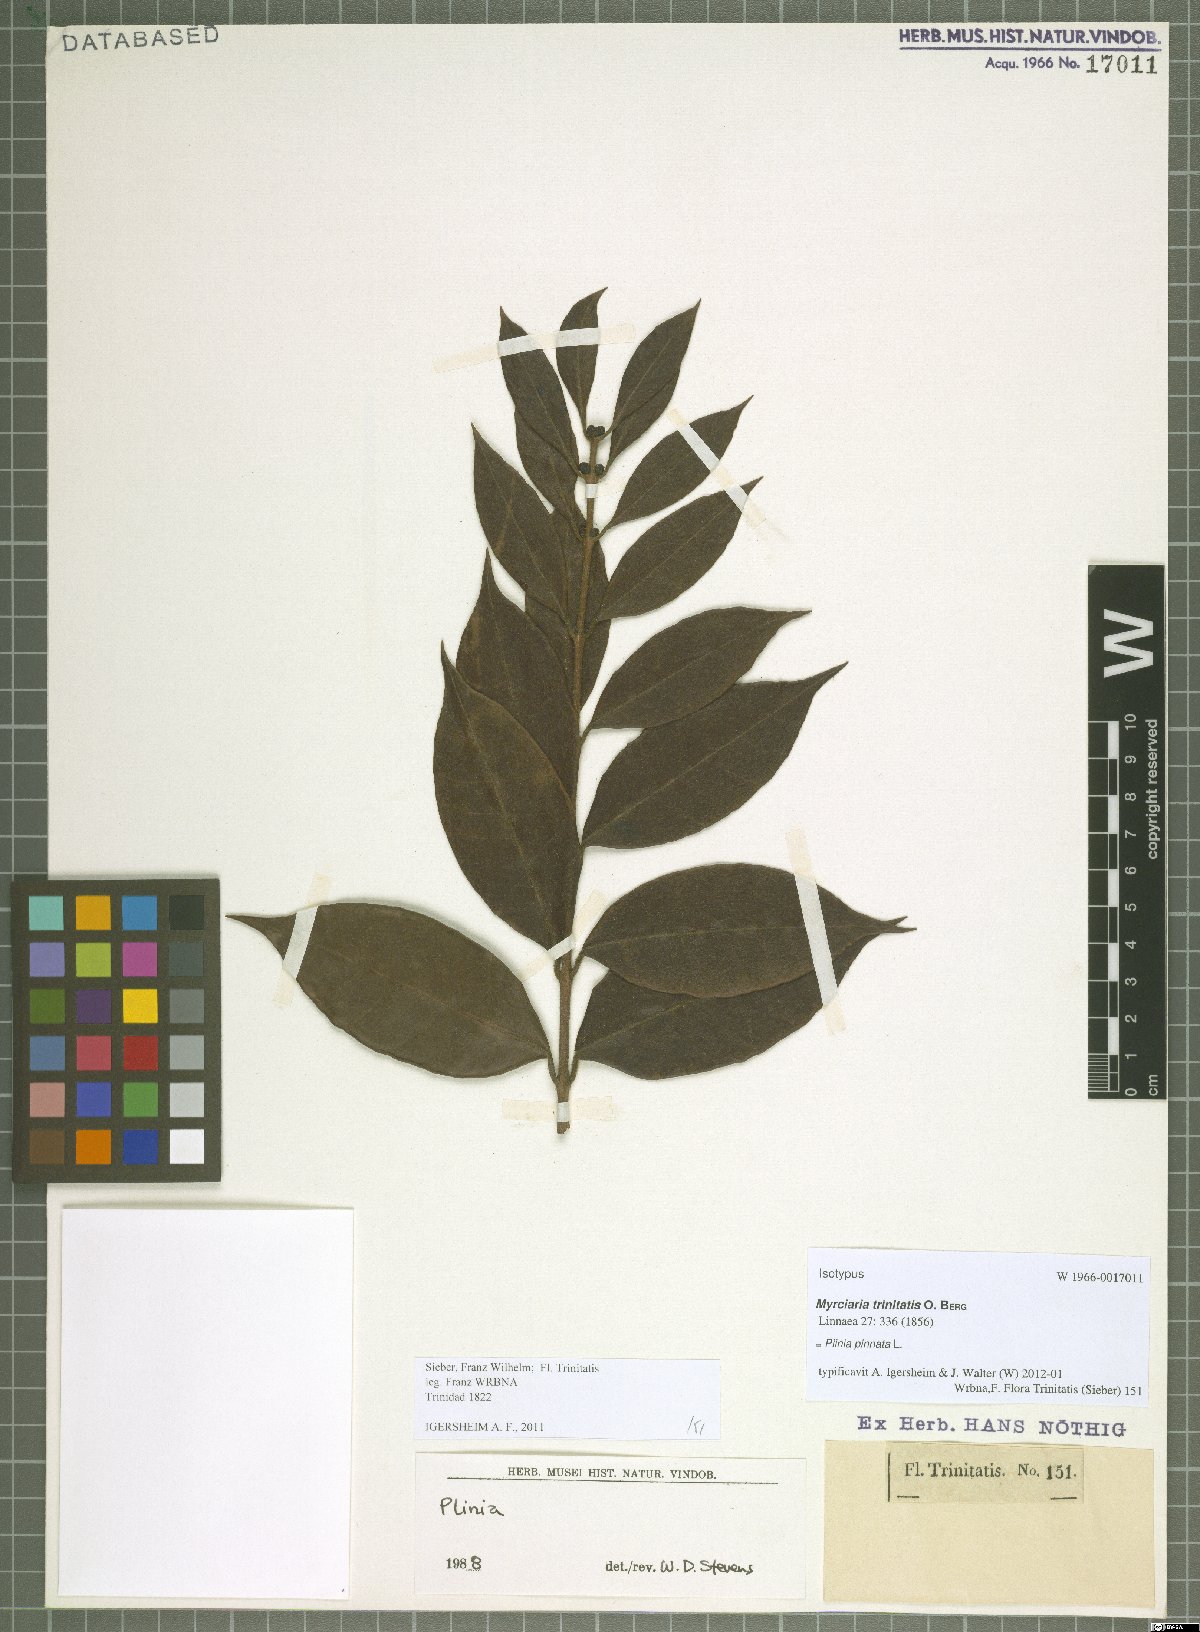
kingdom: Plantae
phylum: Tracheophyta
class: Magnoliopsida
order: Myrtales
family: Myrtaceae
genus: Plinia
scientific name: Plinia pinnata
